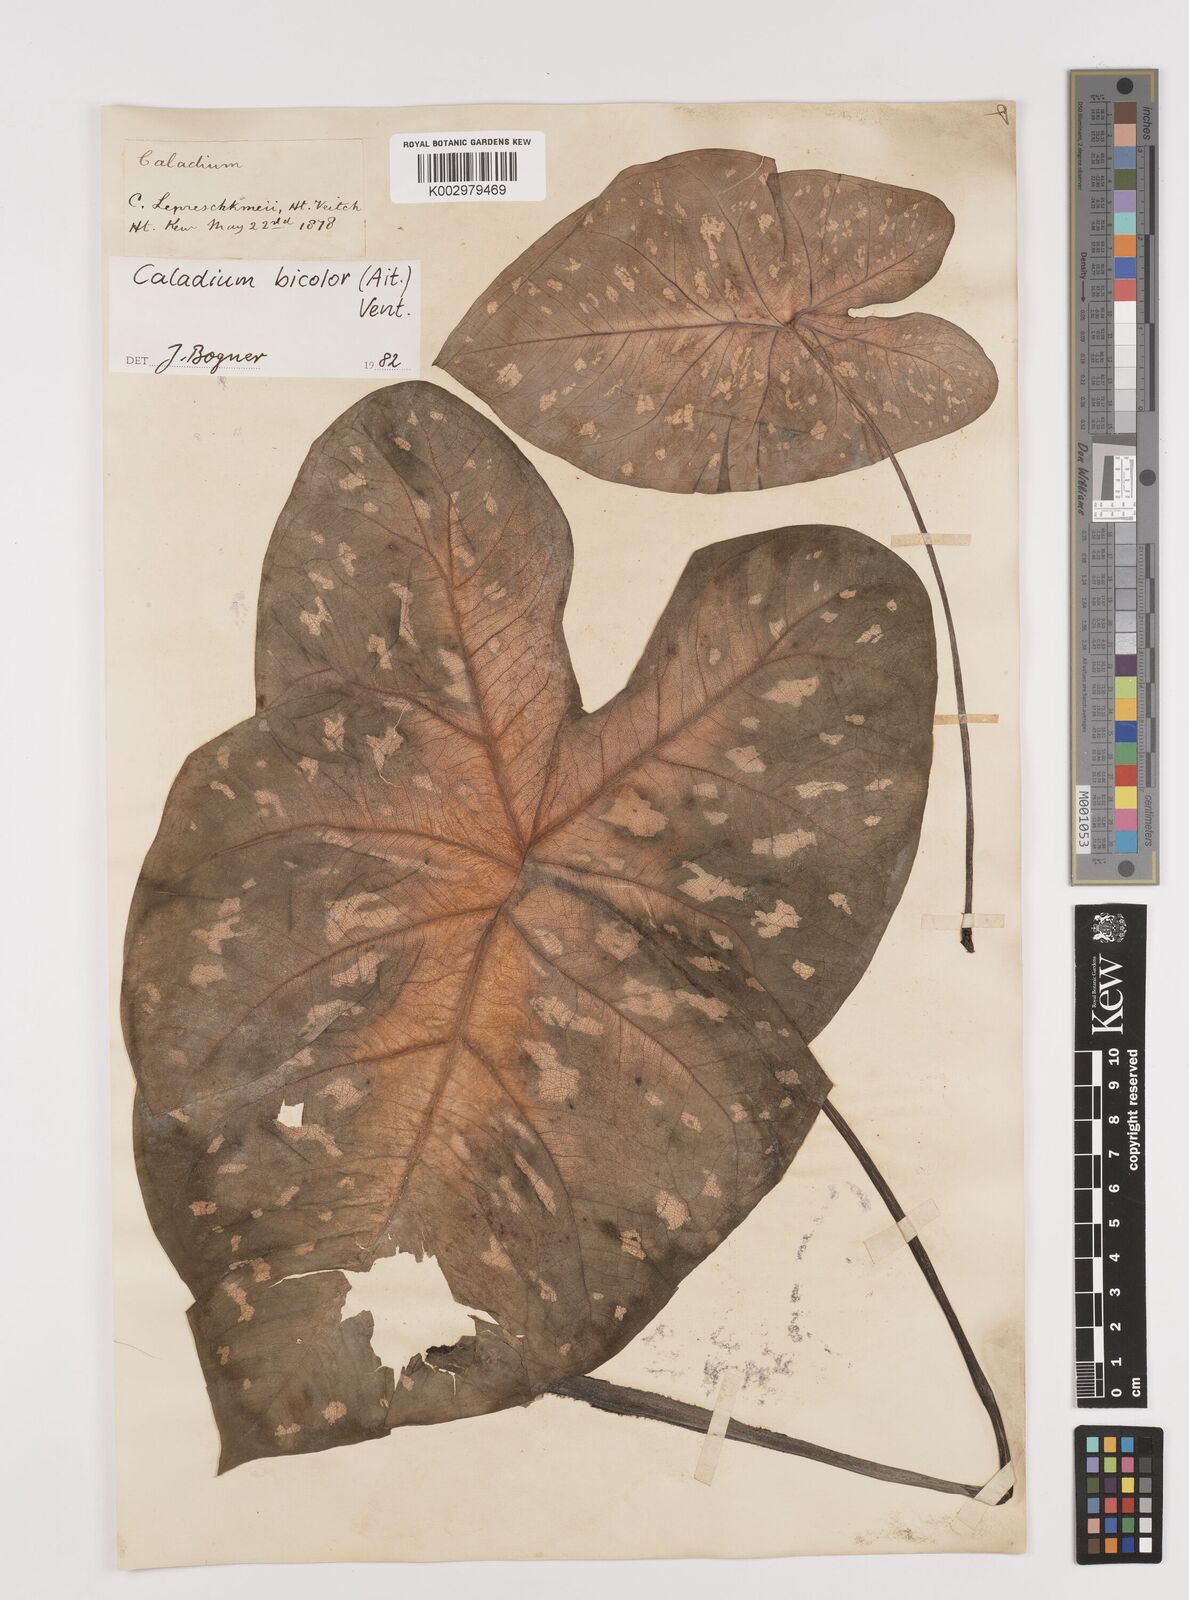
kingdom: Plantae
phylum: Tracheophyta
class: Liliopsida
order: Alismatales
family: Araceae
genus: Caladium
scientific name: Caladium bicolor
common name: Artist's pallet
